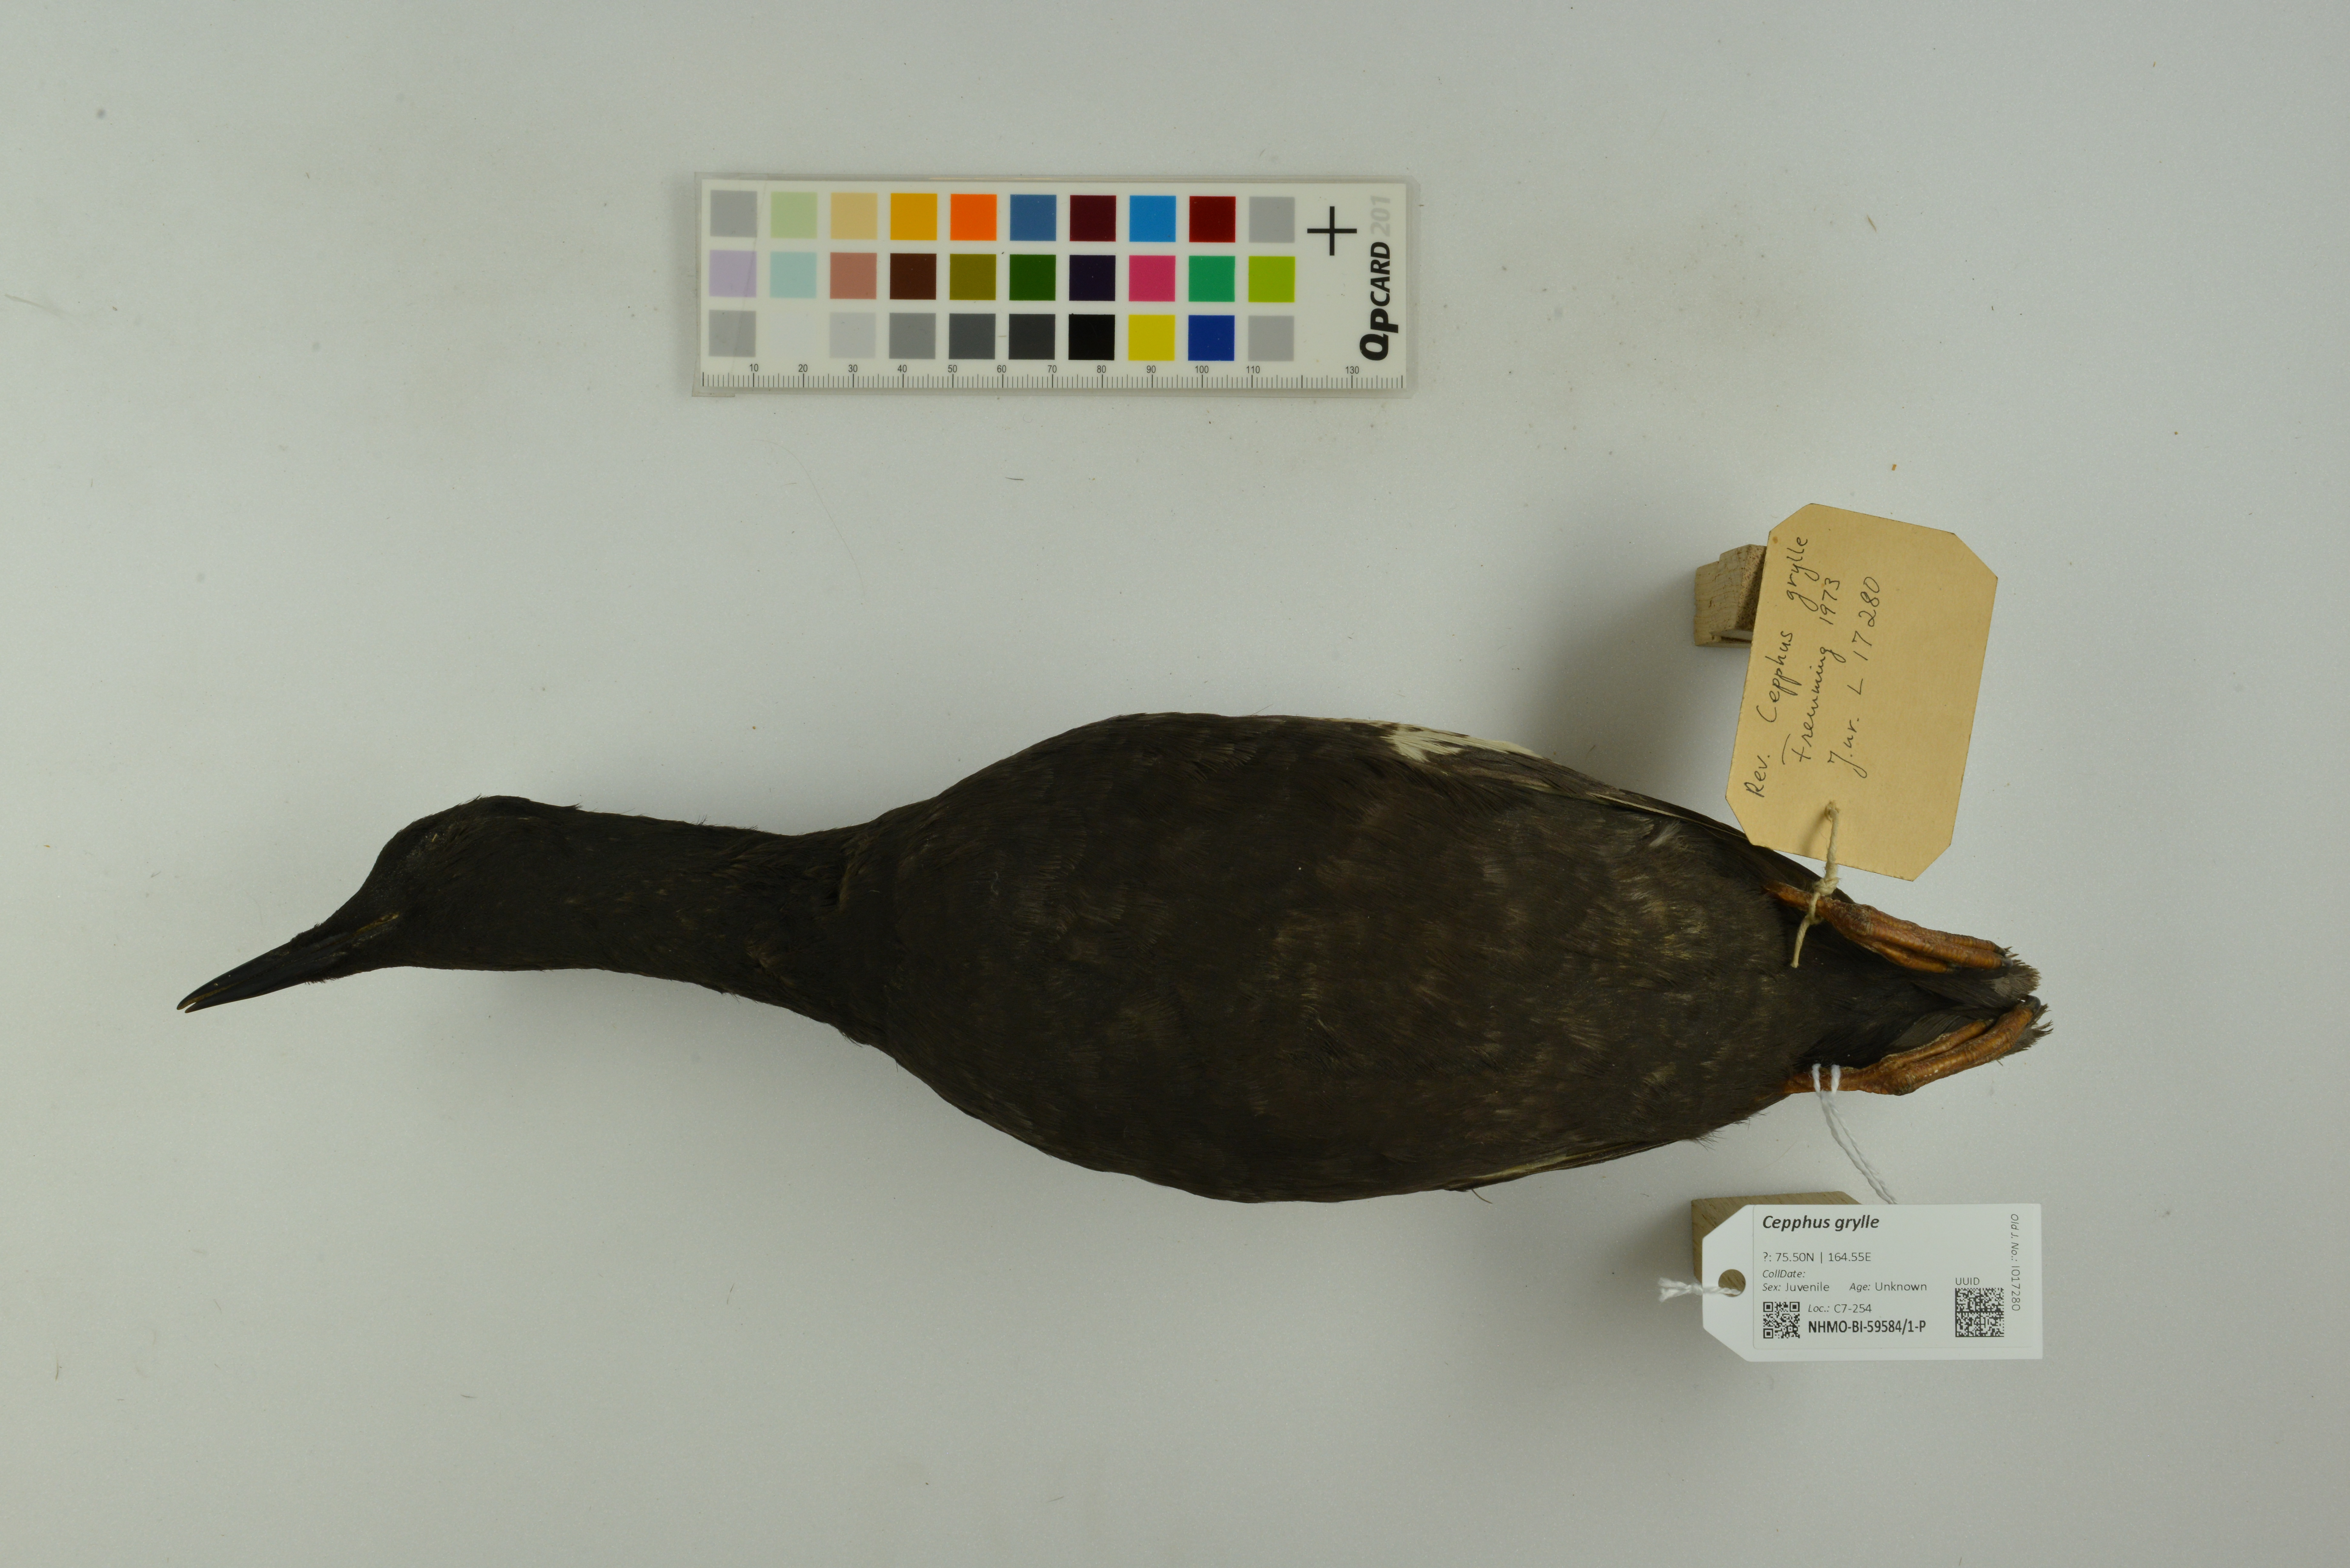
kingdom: Animalia
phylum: Chordata
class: Aves
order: Charadriiformes
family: Alcidae
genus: Cepphus
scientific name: Cepphus grylle
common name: Black guillemot
